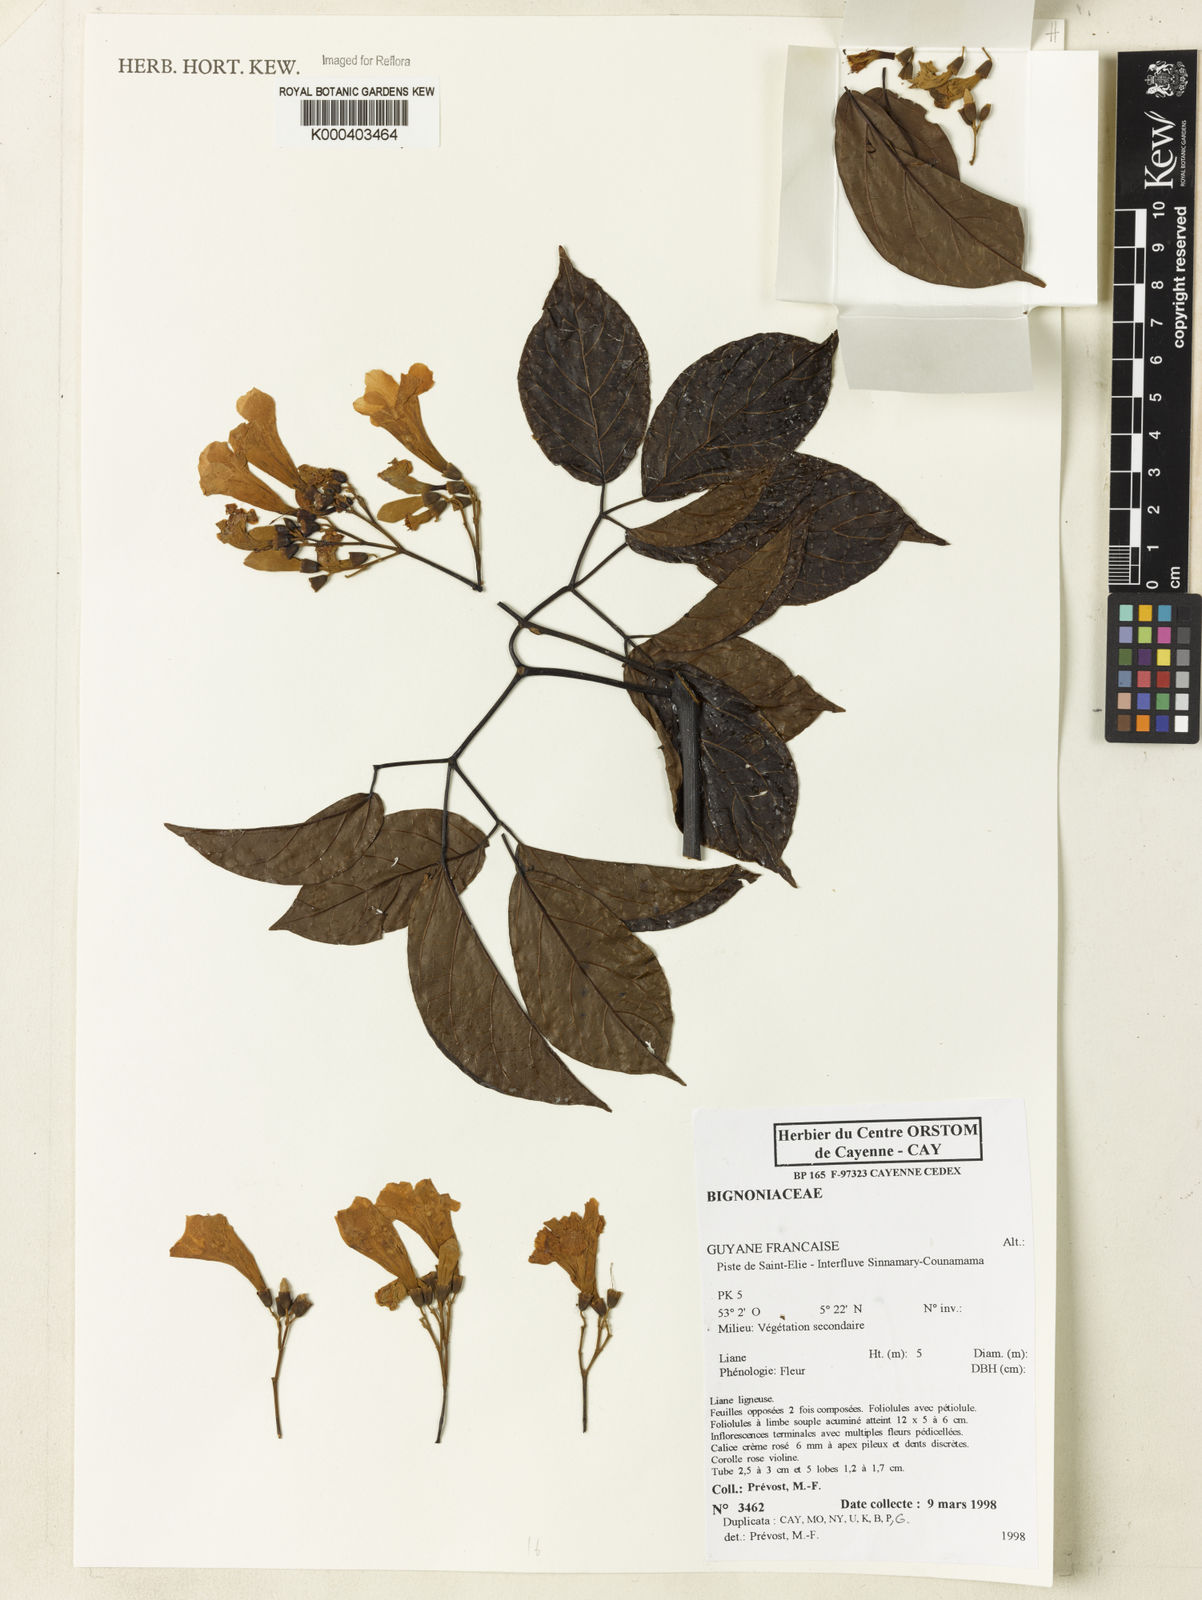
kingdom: Plantae
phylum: Tracheophyta
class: Magnoliopsida
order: Rosales
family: Rhamnaceae
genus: Arrabidaea
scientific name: Arrabidaea
